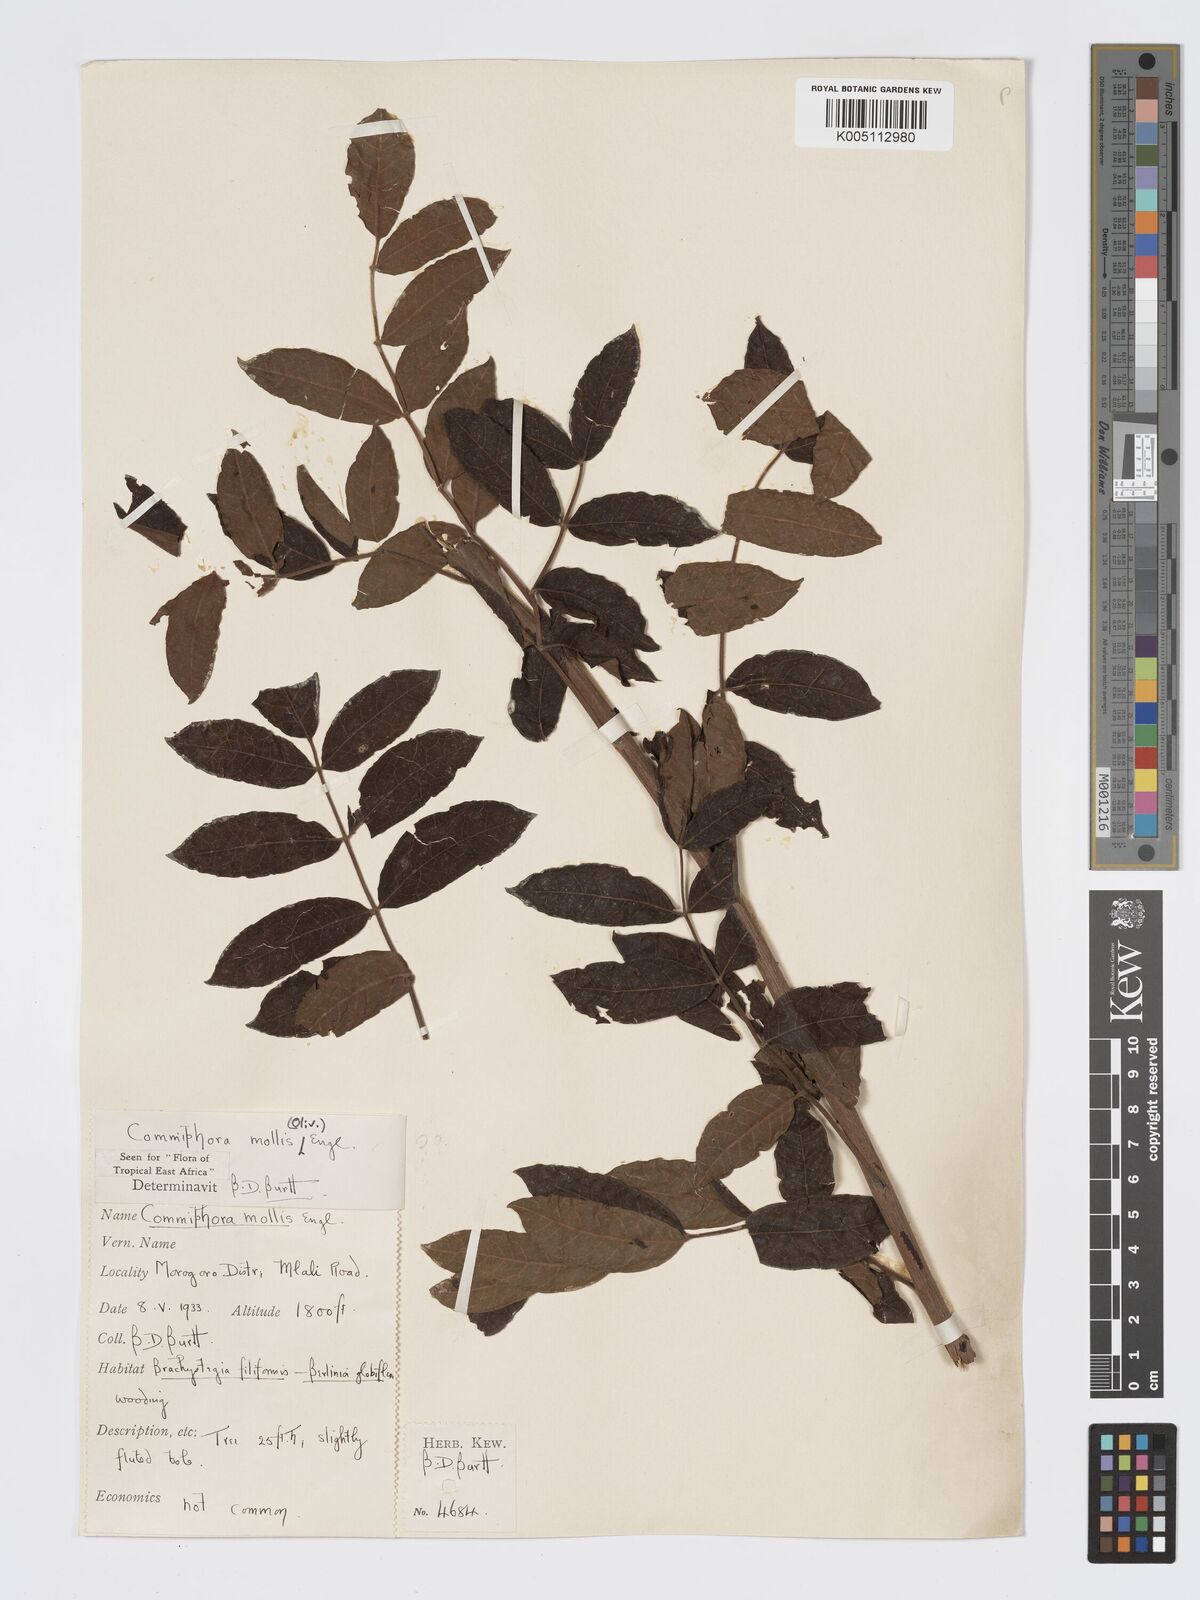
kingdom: Plantae
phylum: Tracheophyta
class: Magnoliopsida
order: Sapindales
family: Burseraceae
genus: Commiphora
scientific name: Commiphora
